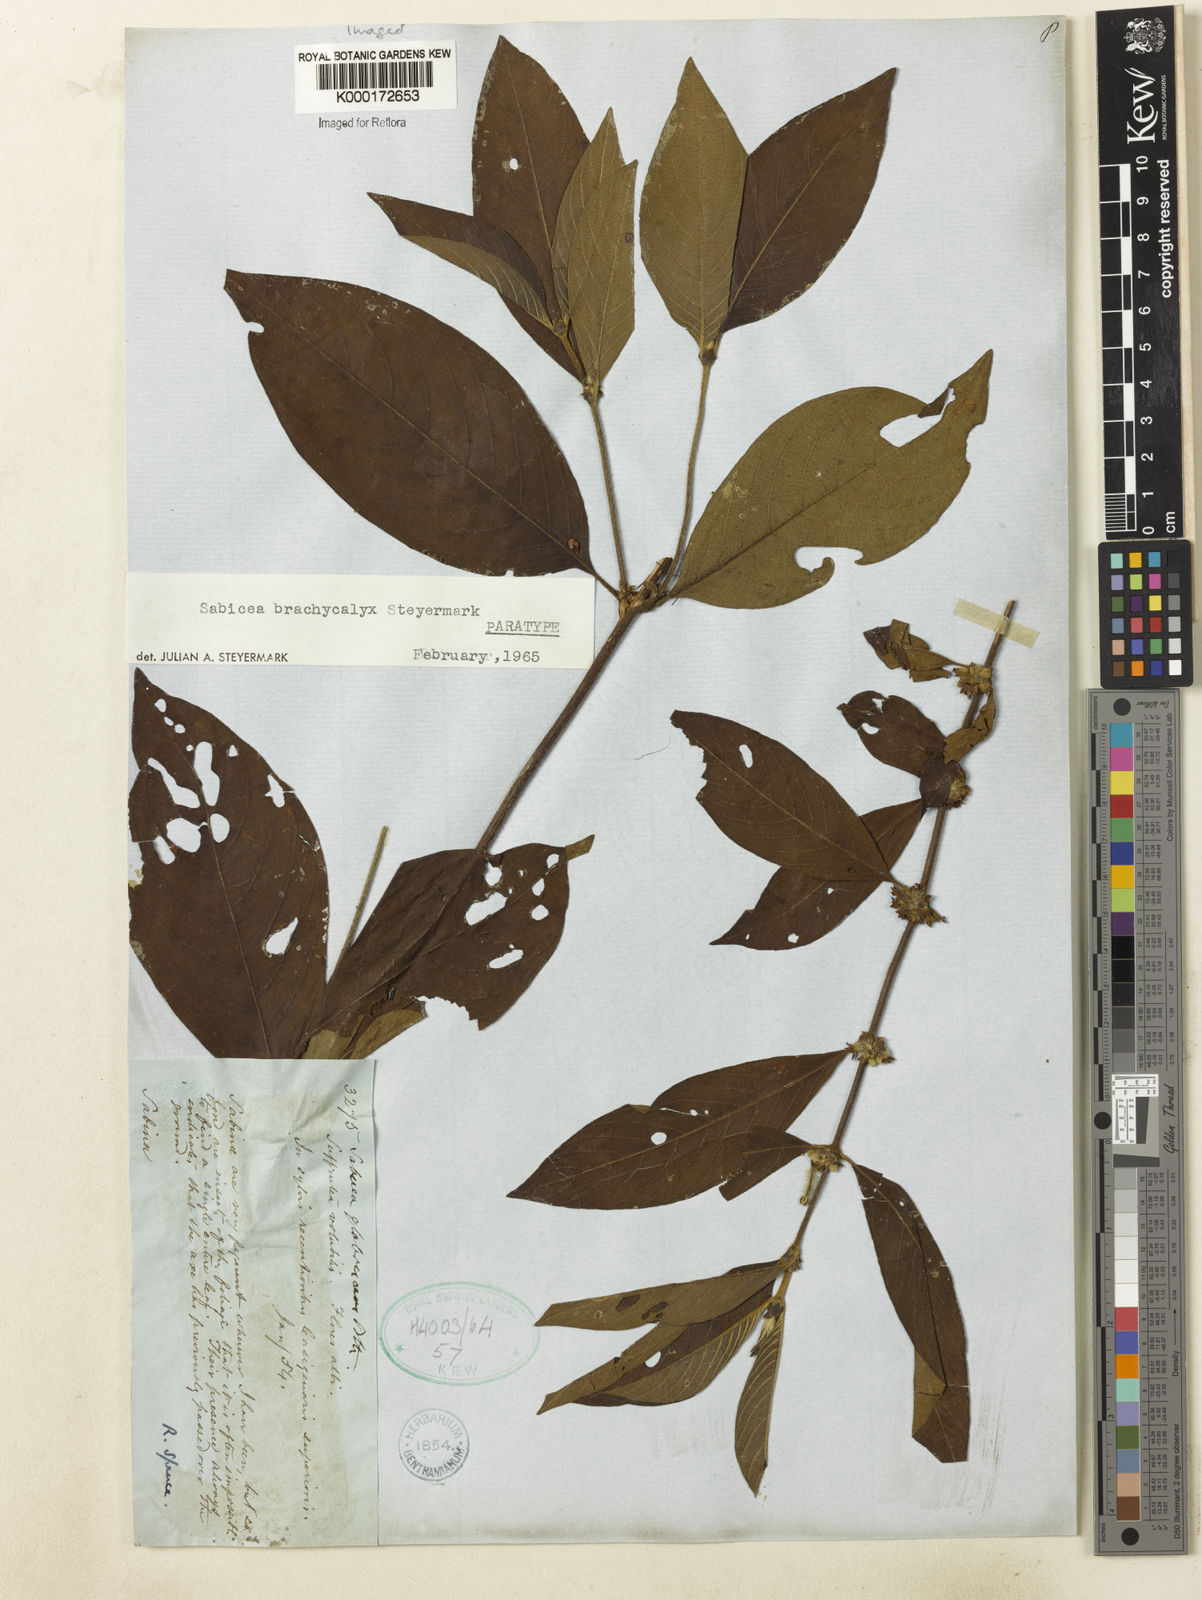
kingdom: Plantae
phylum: Tracheophyta
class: Magnoliopsida
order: Gentianales
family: Rubiaceae
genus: Sabicea
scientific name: Sabicea brachycalyx
